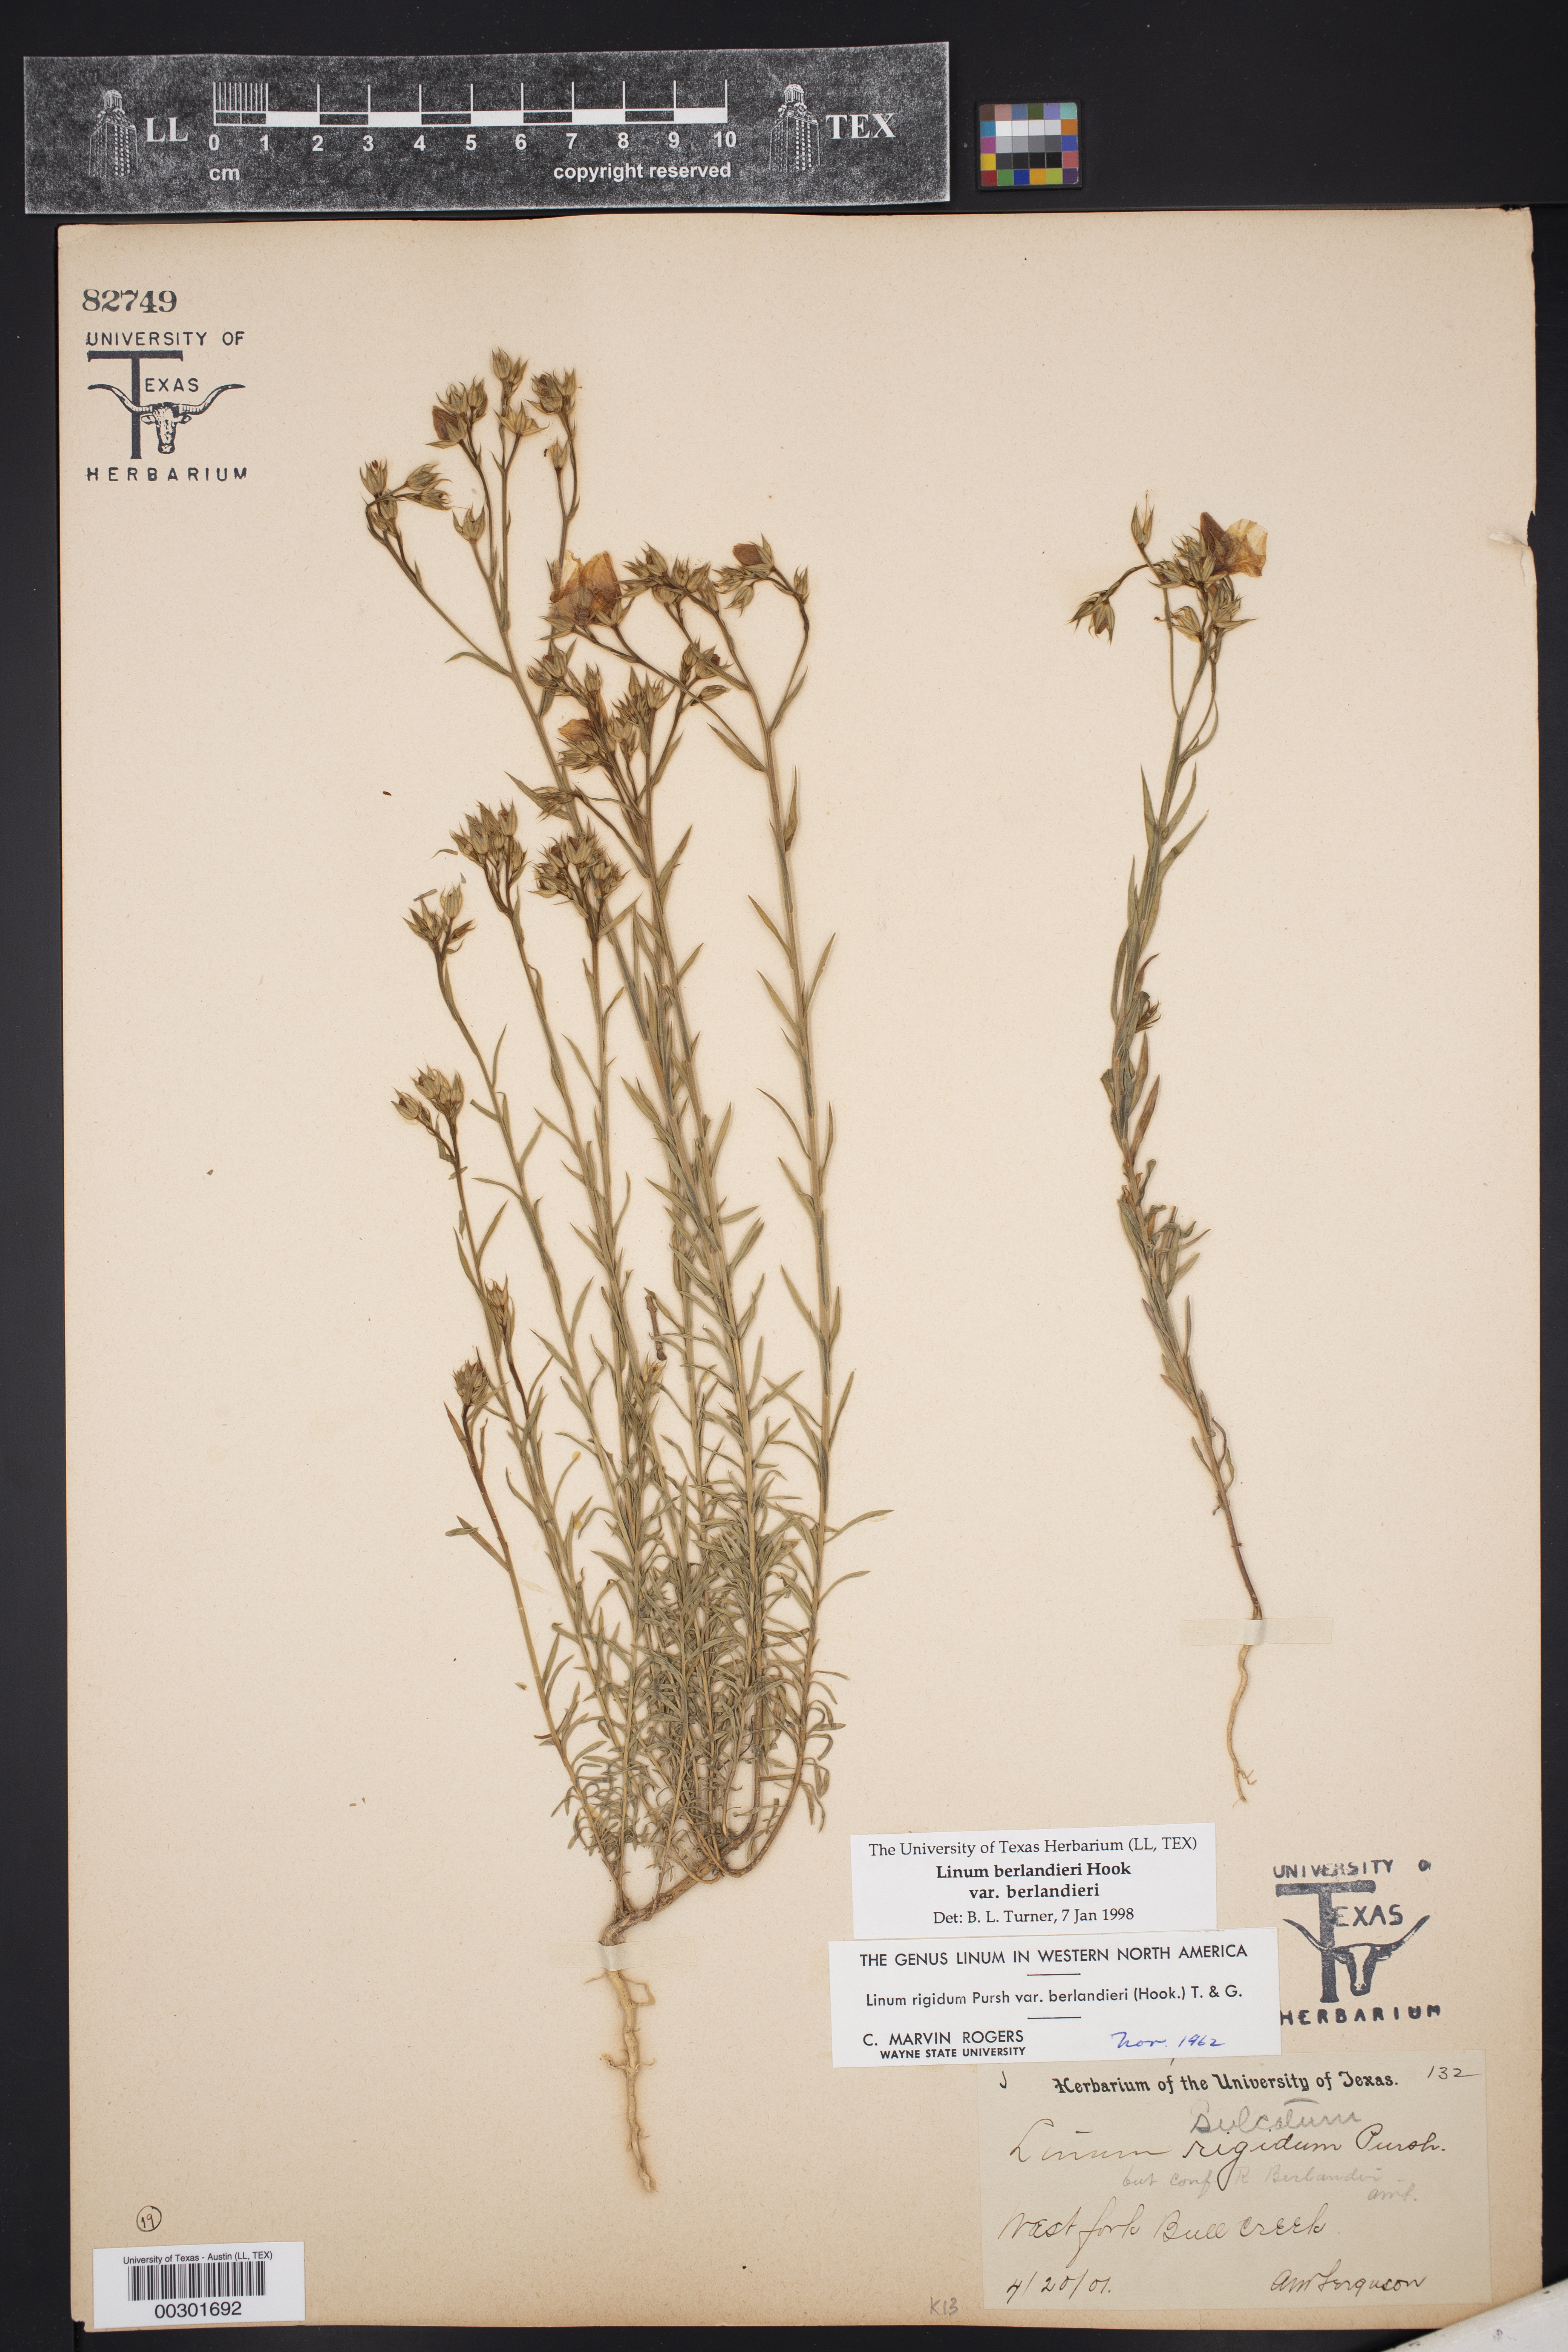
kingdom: Plantae
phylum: Tracheophyta
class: Magnoliopsida
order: Malpighiales
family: Linaceae
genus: Linum
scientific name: Linum berlandieri
